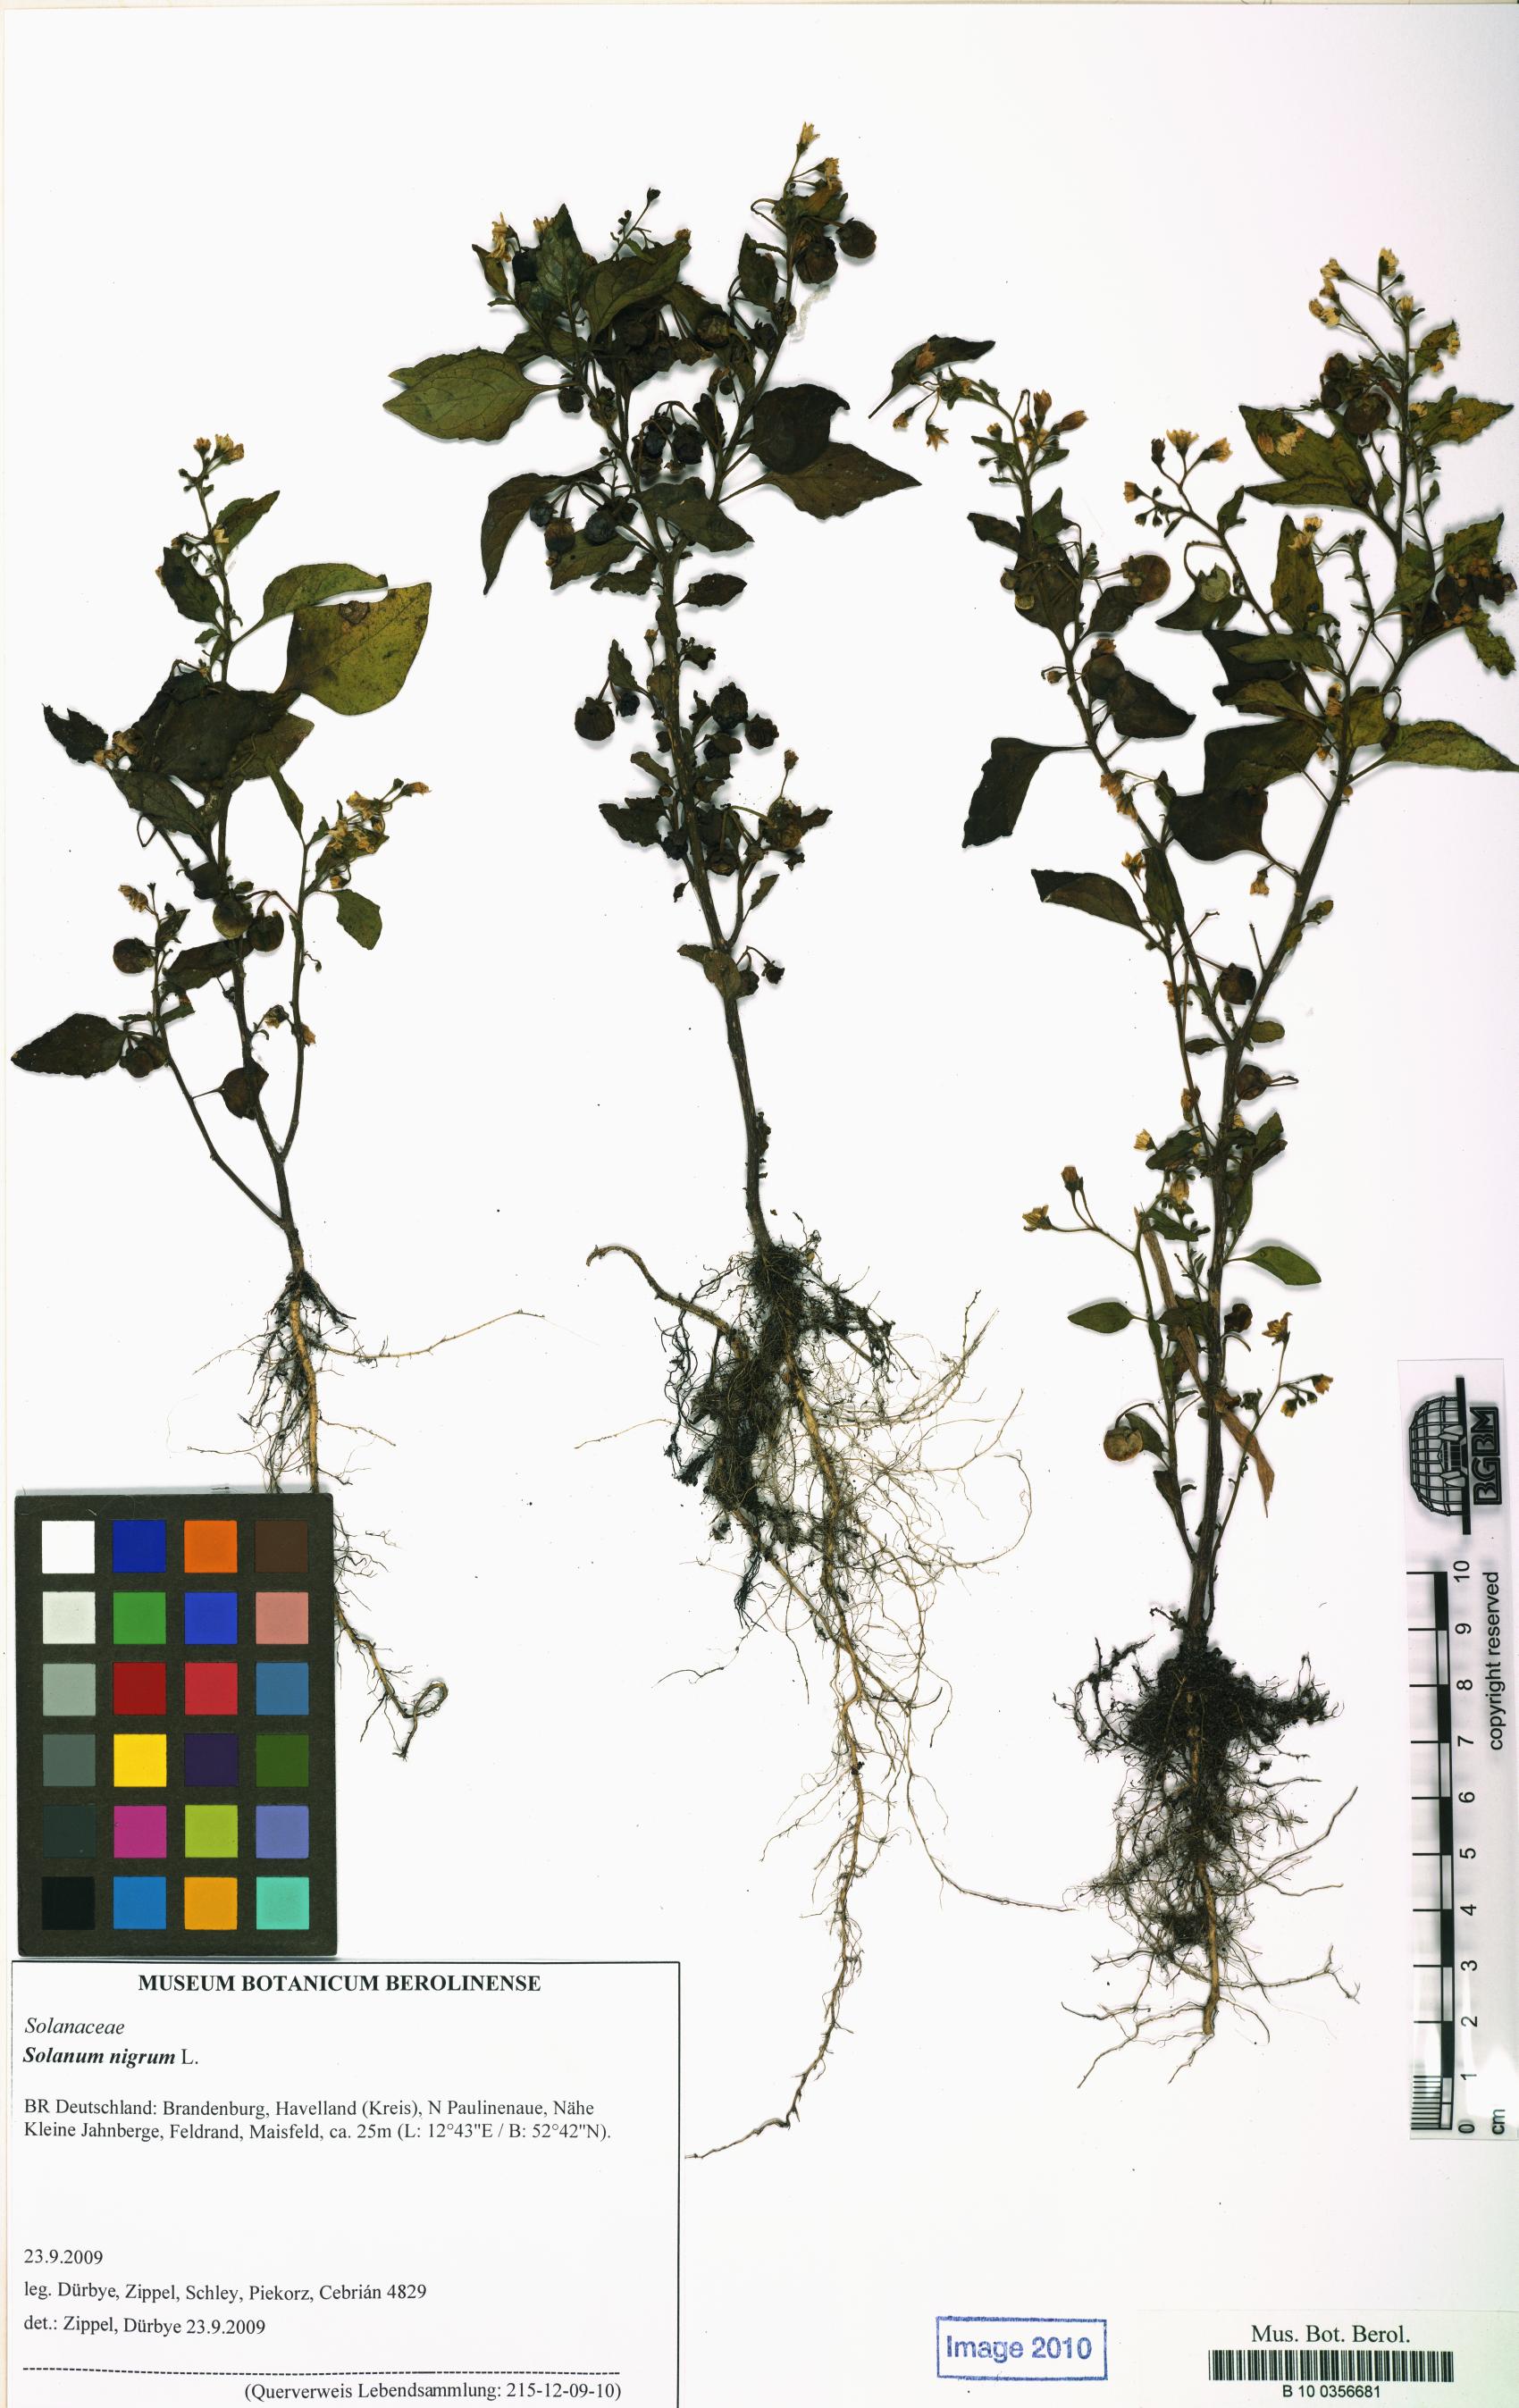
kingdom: Plantae
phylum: Tracheophyta
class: Magnoliopsida
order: Solanales
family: Solanaceae
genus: Solanum
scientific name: Solanum nigrum
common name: Black nightshade
